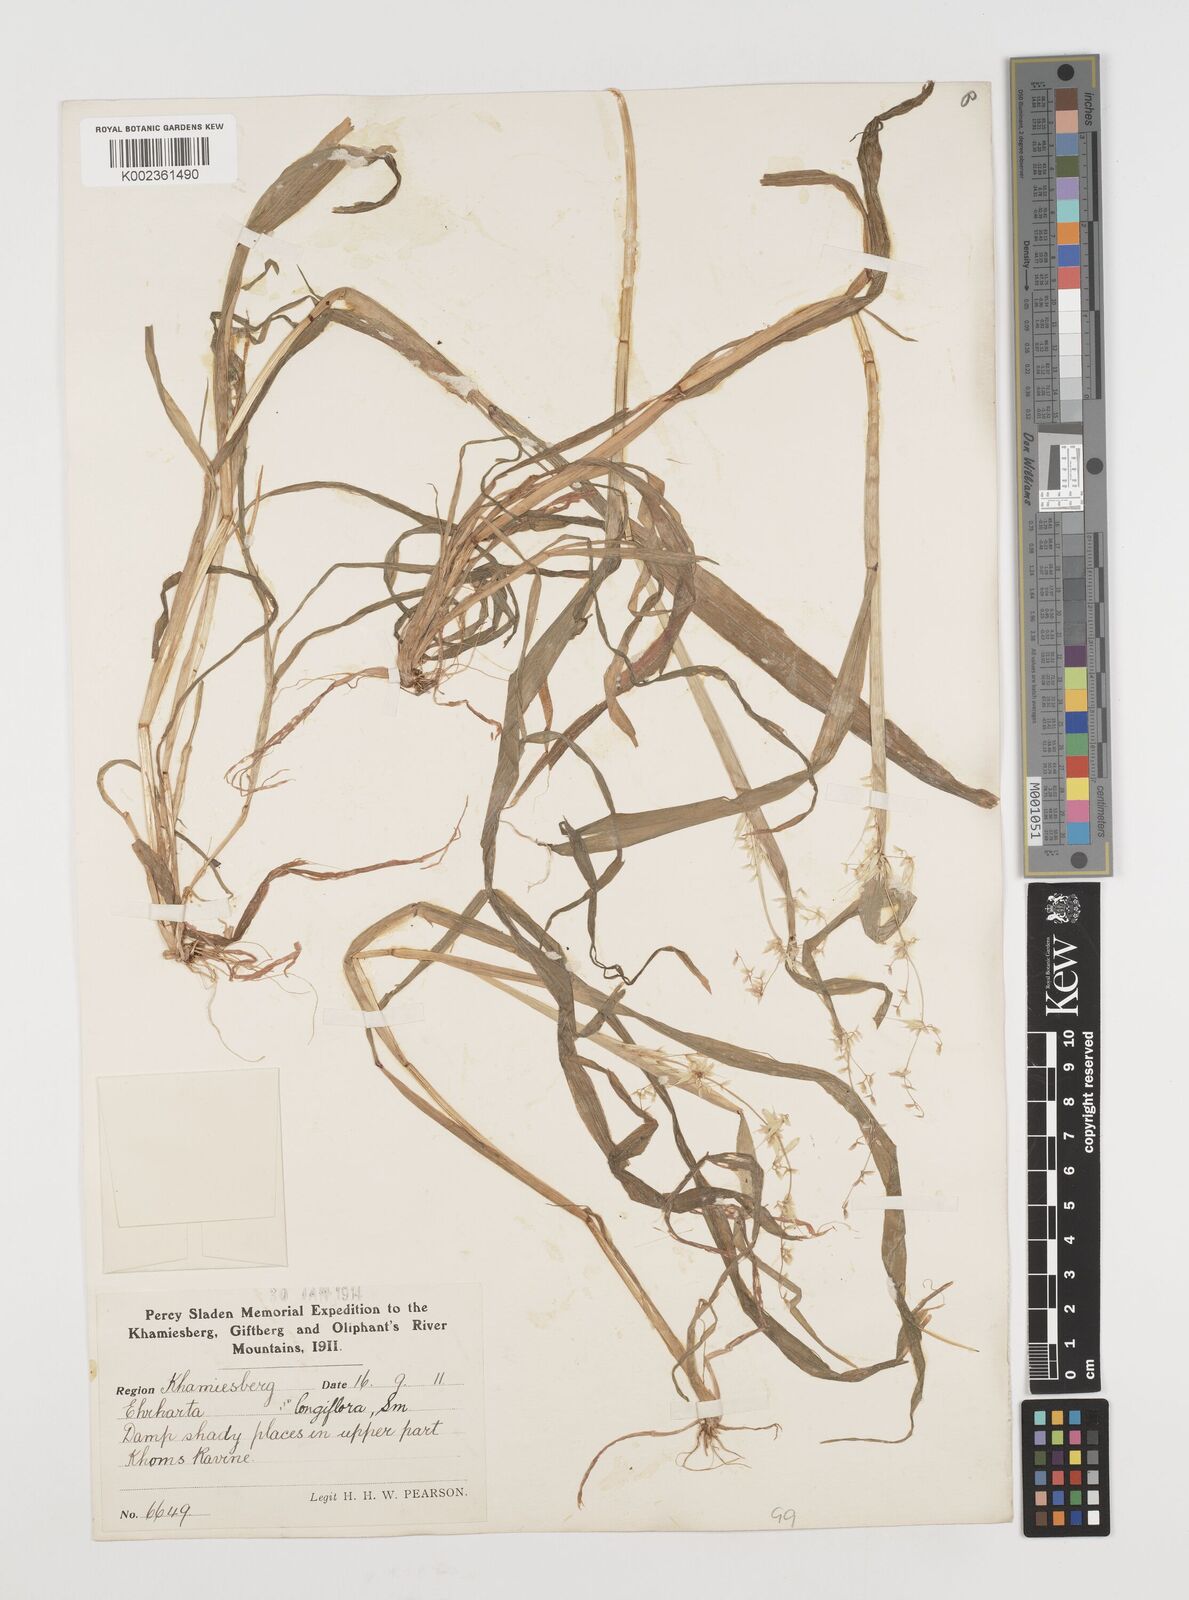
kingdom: Plantae
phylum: Tracheophyta
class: Liliopsida
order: Poales
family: Poaceae
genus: Ehrharta
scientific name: Ehrharta longiflora
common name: Longflowered veldtgrass
